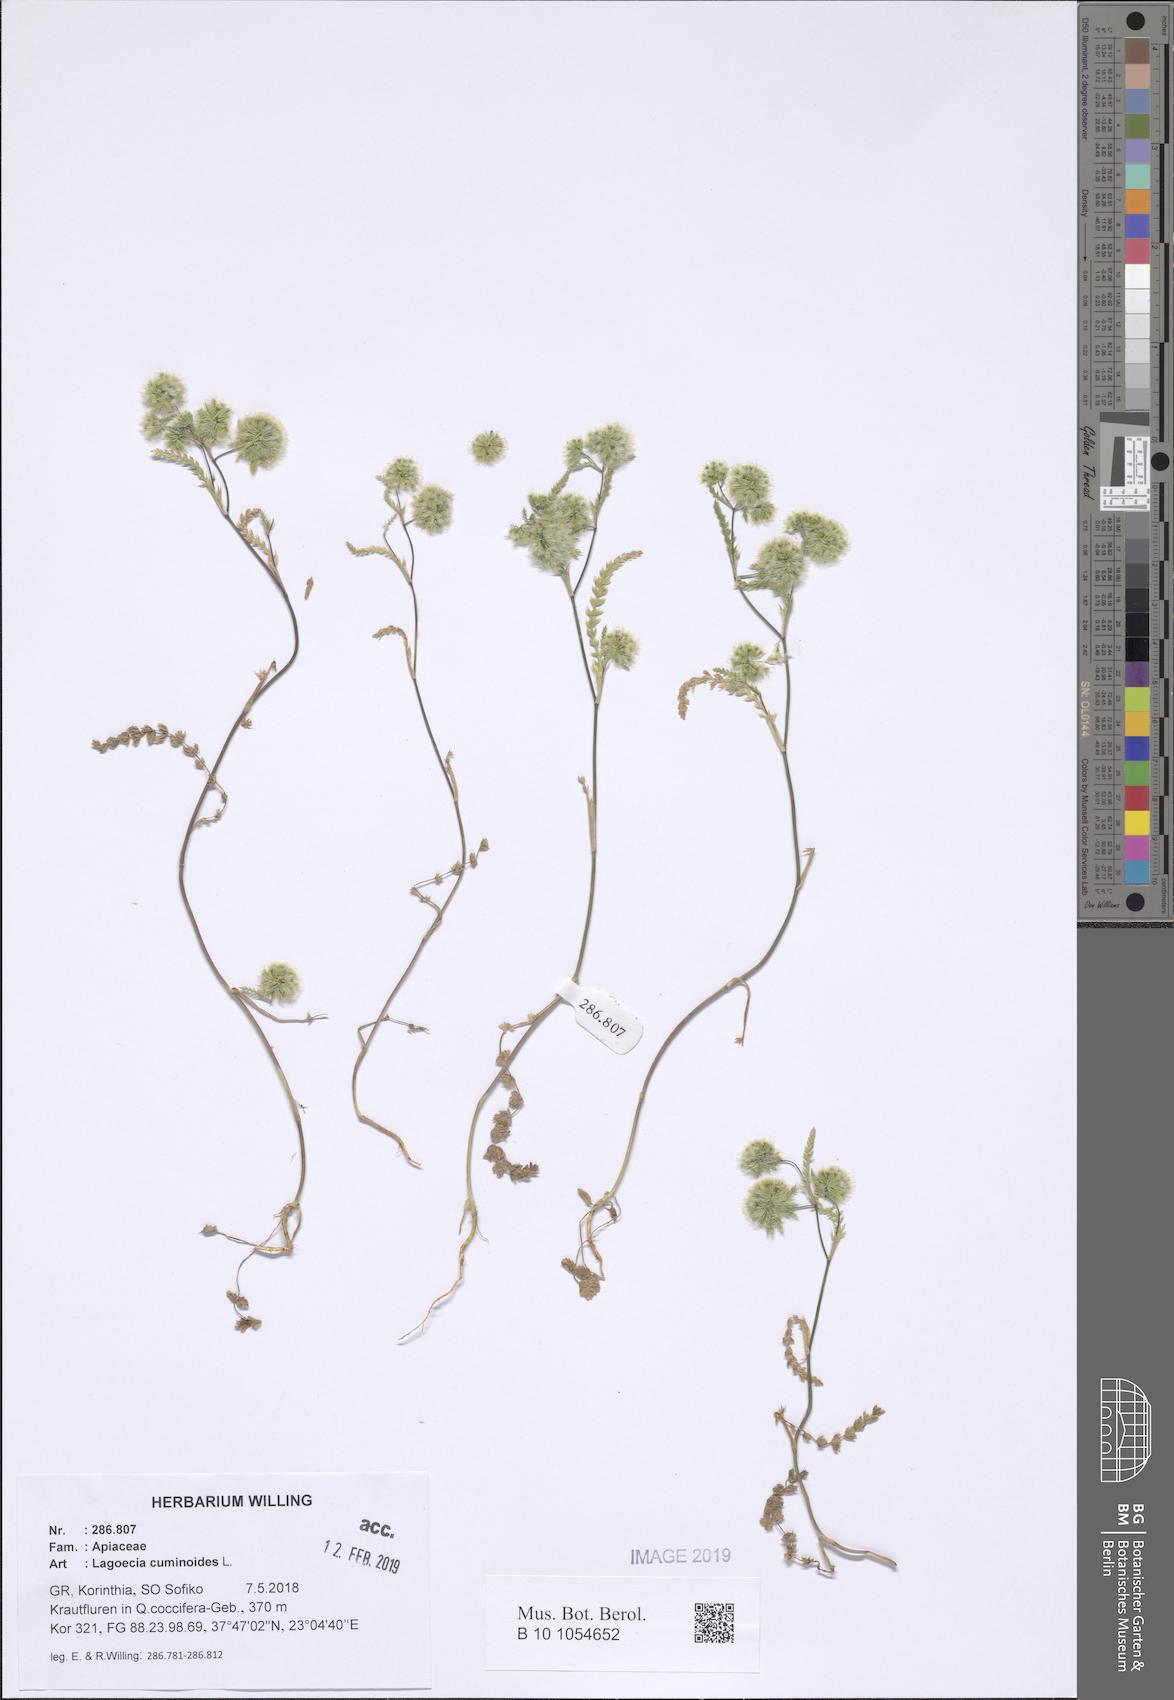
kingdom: Plantae
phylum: Tracheophyta
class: Magnoliopsida
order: Apiales
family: Apiaceae
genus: Lagoecia
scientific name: Lagoecia cuminoides
